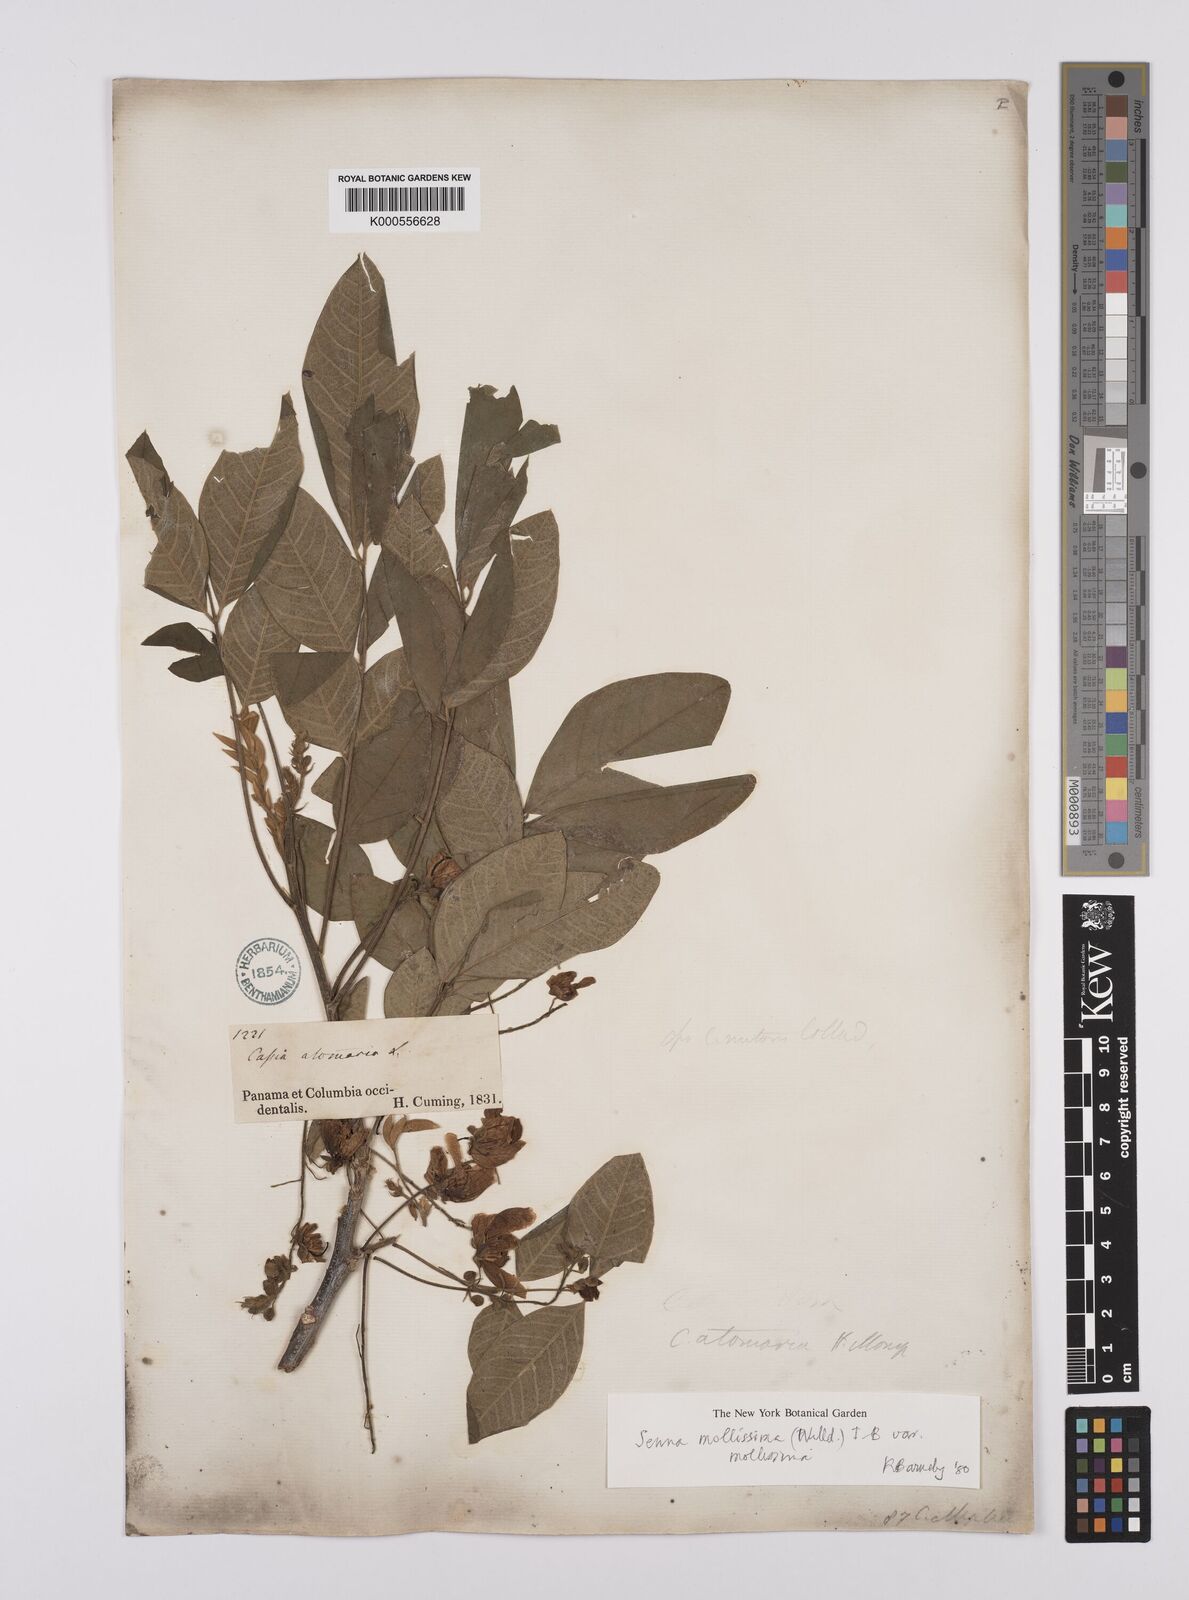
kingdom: Plantae
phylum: Tracheophyta
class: Magnoliopsida
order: Fabales
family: Fabaceae
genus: Senna
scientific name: Senna mollissima
